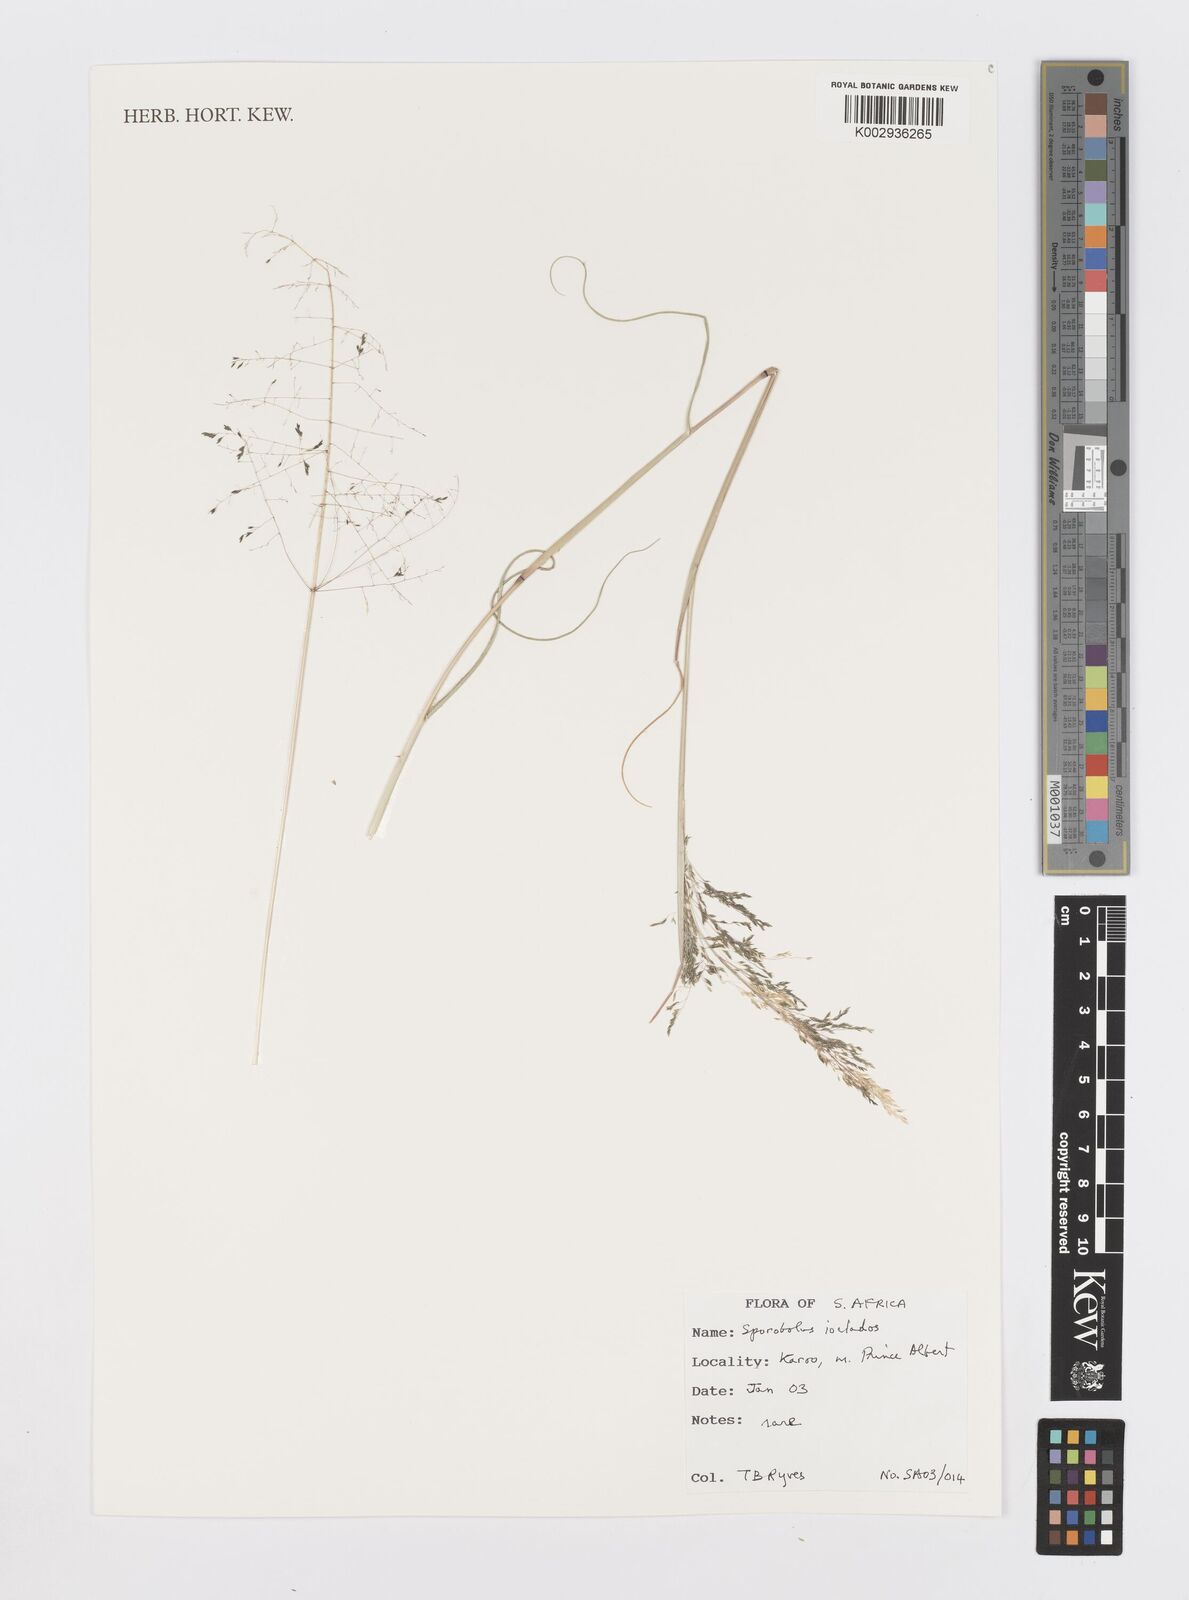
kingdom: Plantae
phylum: Tracheophyta
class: Liliopsida
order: Poales
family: Poaceae
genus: Sporobolus
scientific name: Sporobolus ioclados
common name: Pan dropseed
